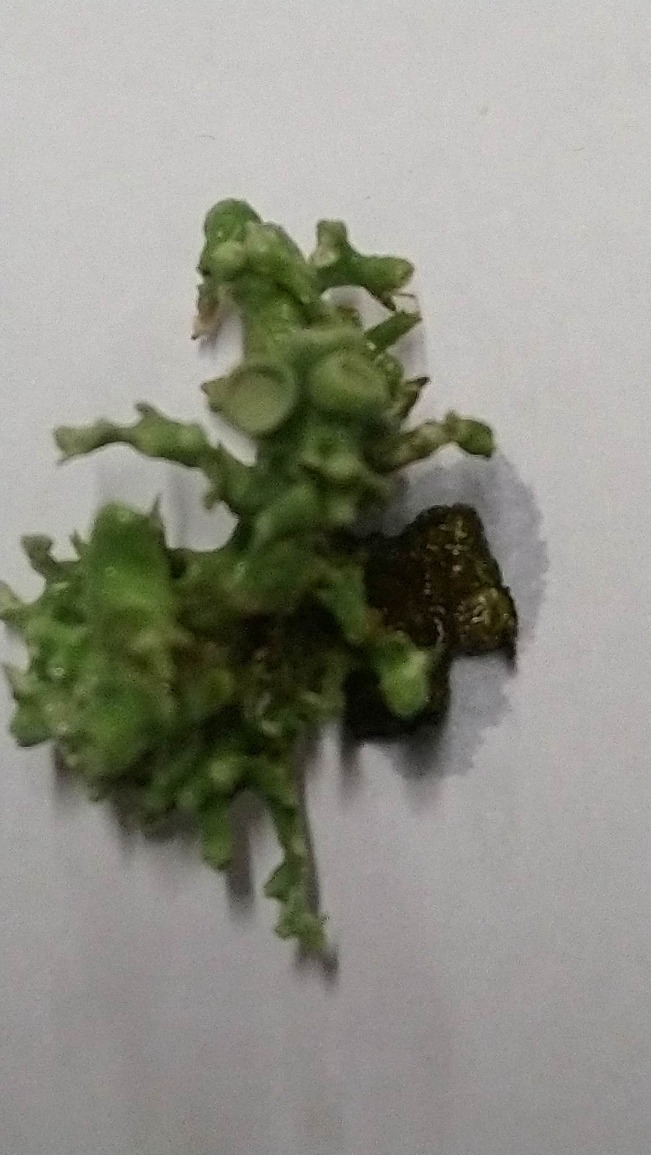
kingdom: Fungi
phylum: Ascomycota
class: Lecanoromycetes
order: Lecanorales
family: Ramalinaceae
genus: Ramalina
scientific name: Ramalina fastigiata
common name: Tue-grenlav
